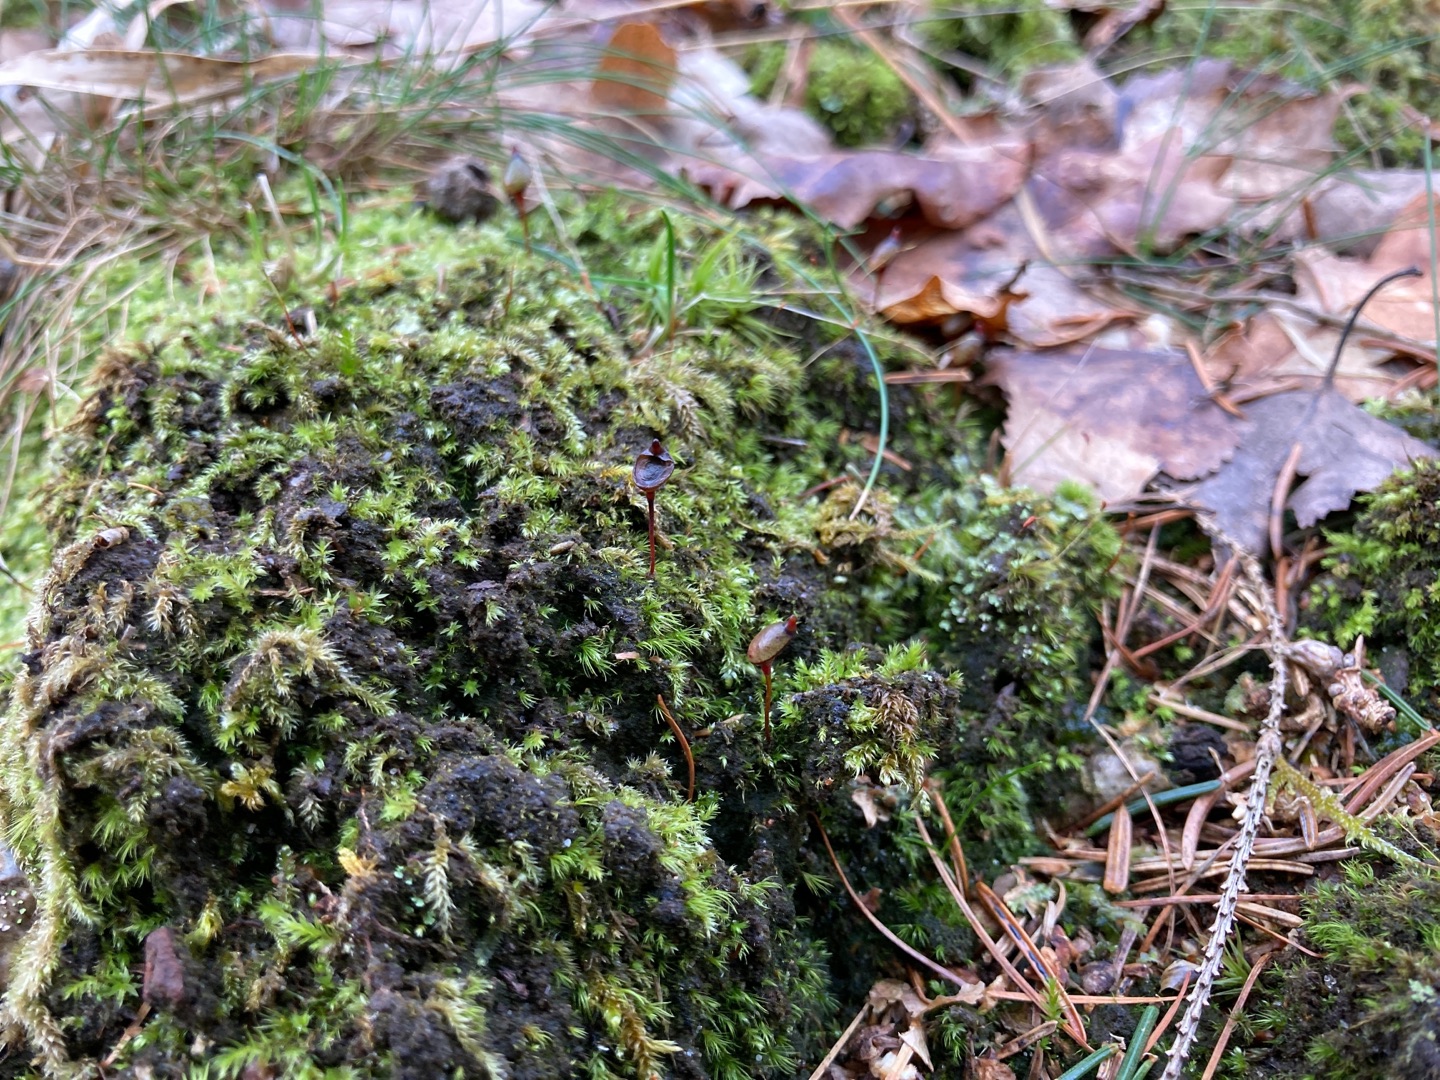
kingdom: Plantae
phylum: Bryophyta
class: Bryopsida
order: Buxbaumiales
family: Buxbaumiaceae
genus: Buxbaumia
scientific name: Buxbaumia aphylla
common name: Rundkapslet buxbaumia
